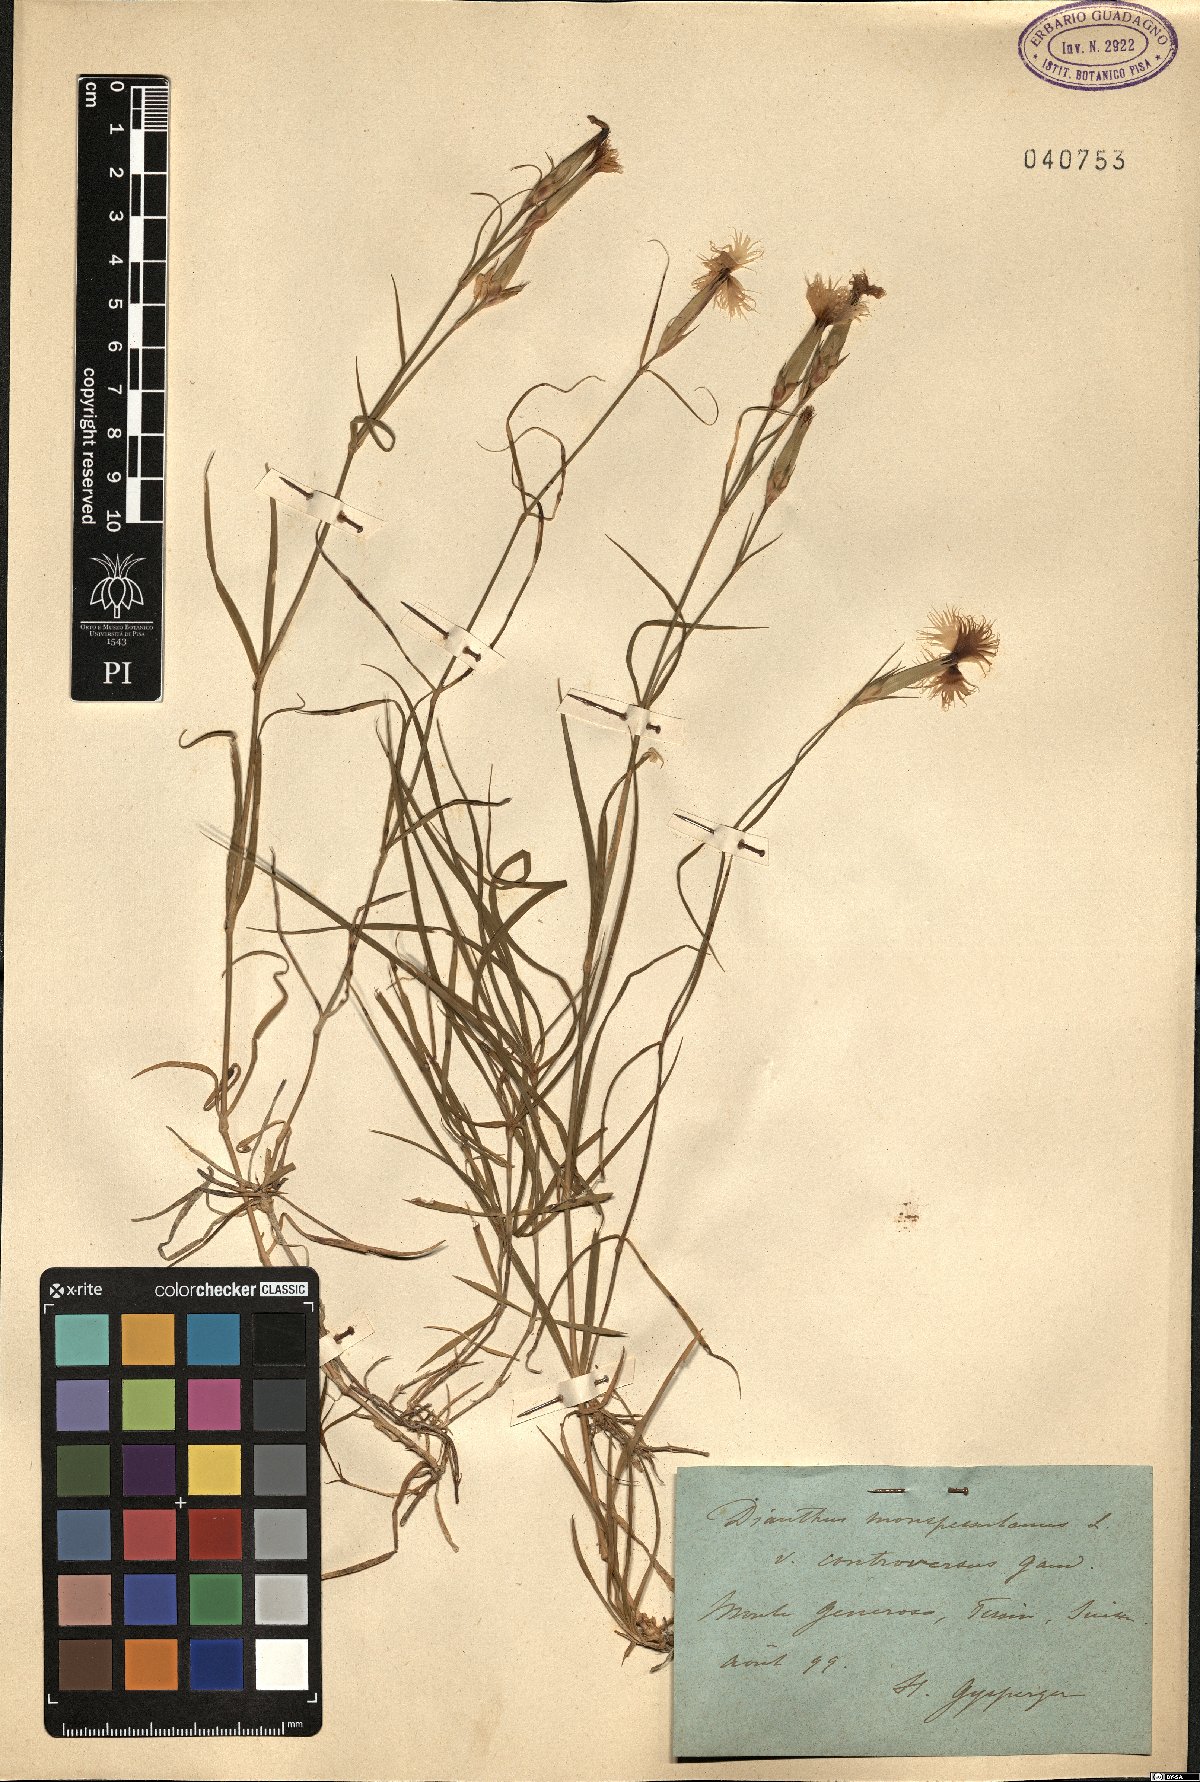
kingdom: Plantae
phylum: Tracheophyta
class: Magnoliopsida
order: Caryophyllales
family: Caryophyllaceae
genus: Dianthus
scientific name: Dianthus hyssopifolius
